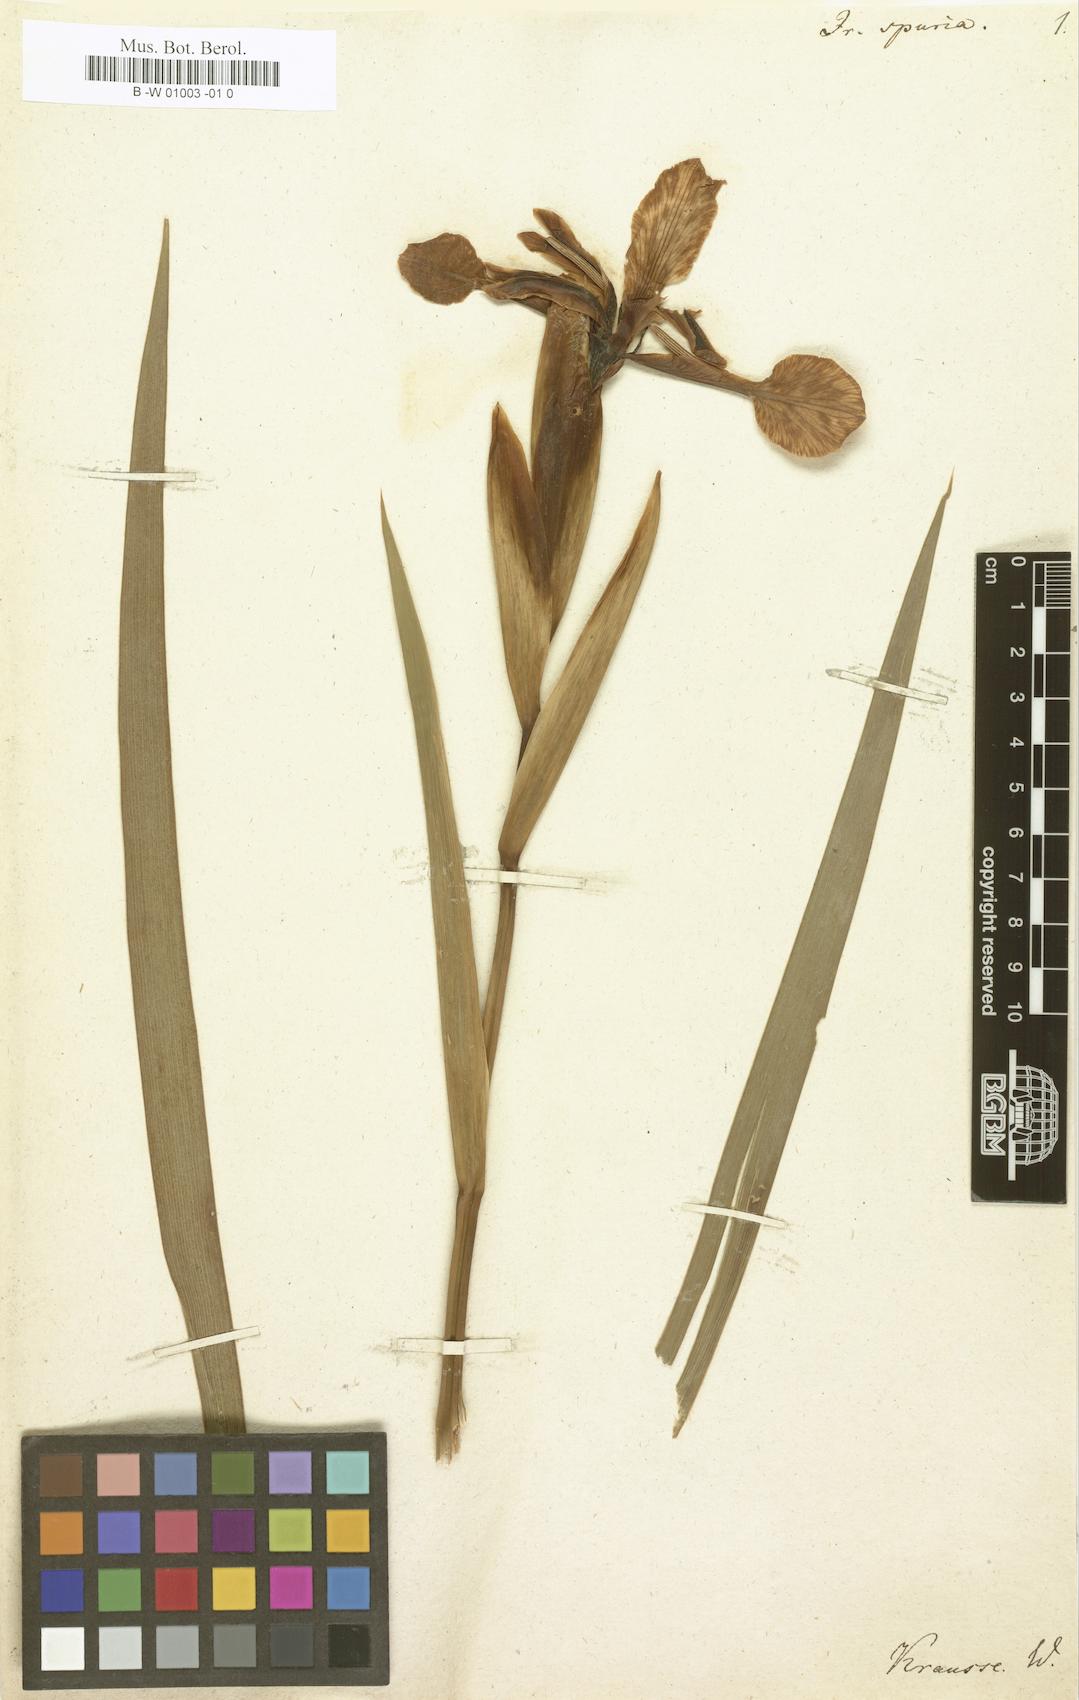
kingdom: Plantae
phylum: Tracheophyta
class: Liliopsida
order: Asparagales
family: Iridaceae
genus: Iris
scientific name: Iris spuria
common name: Blue iris
